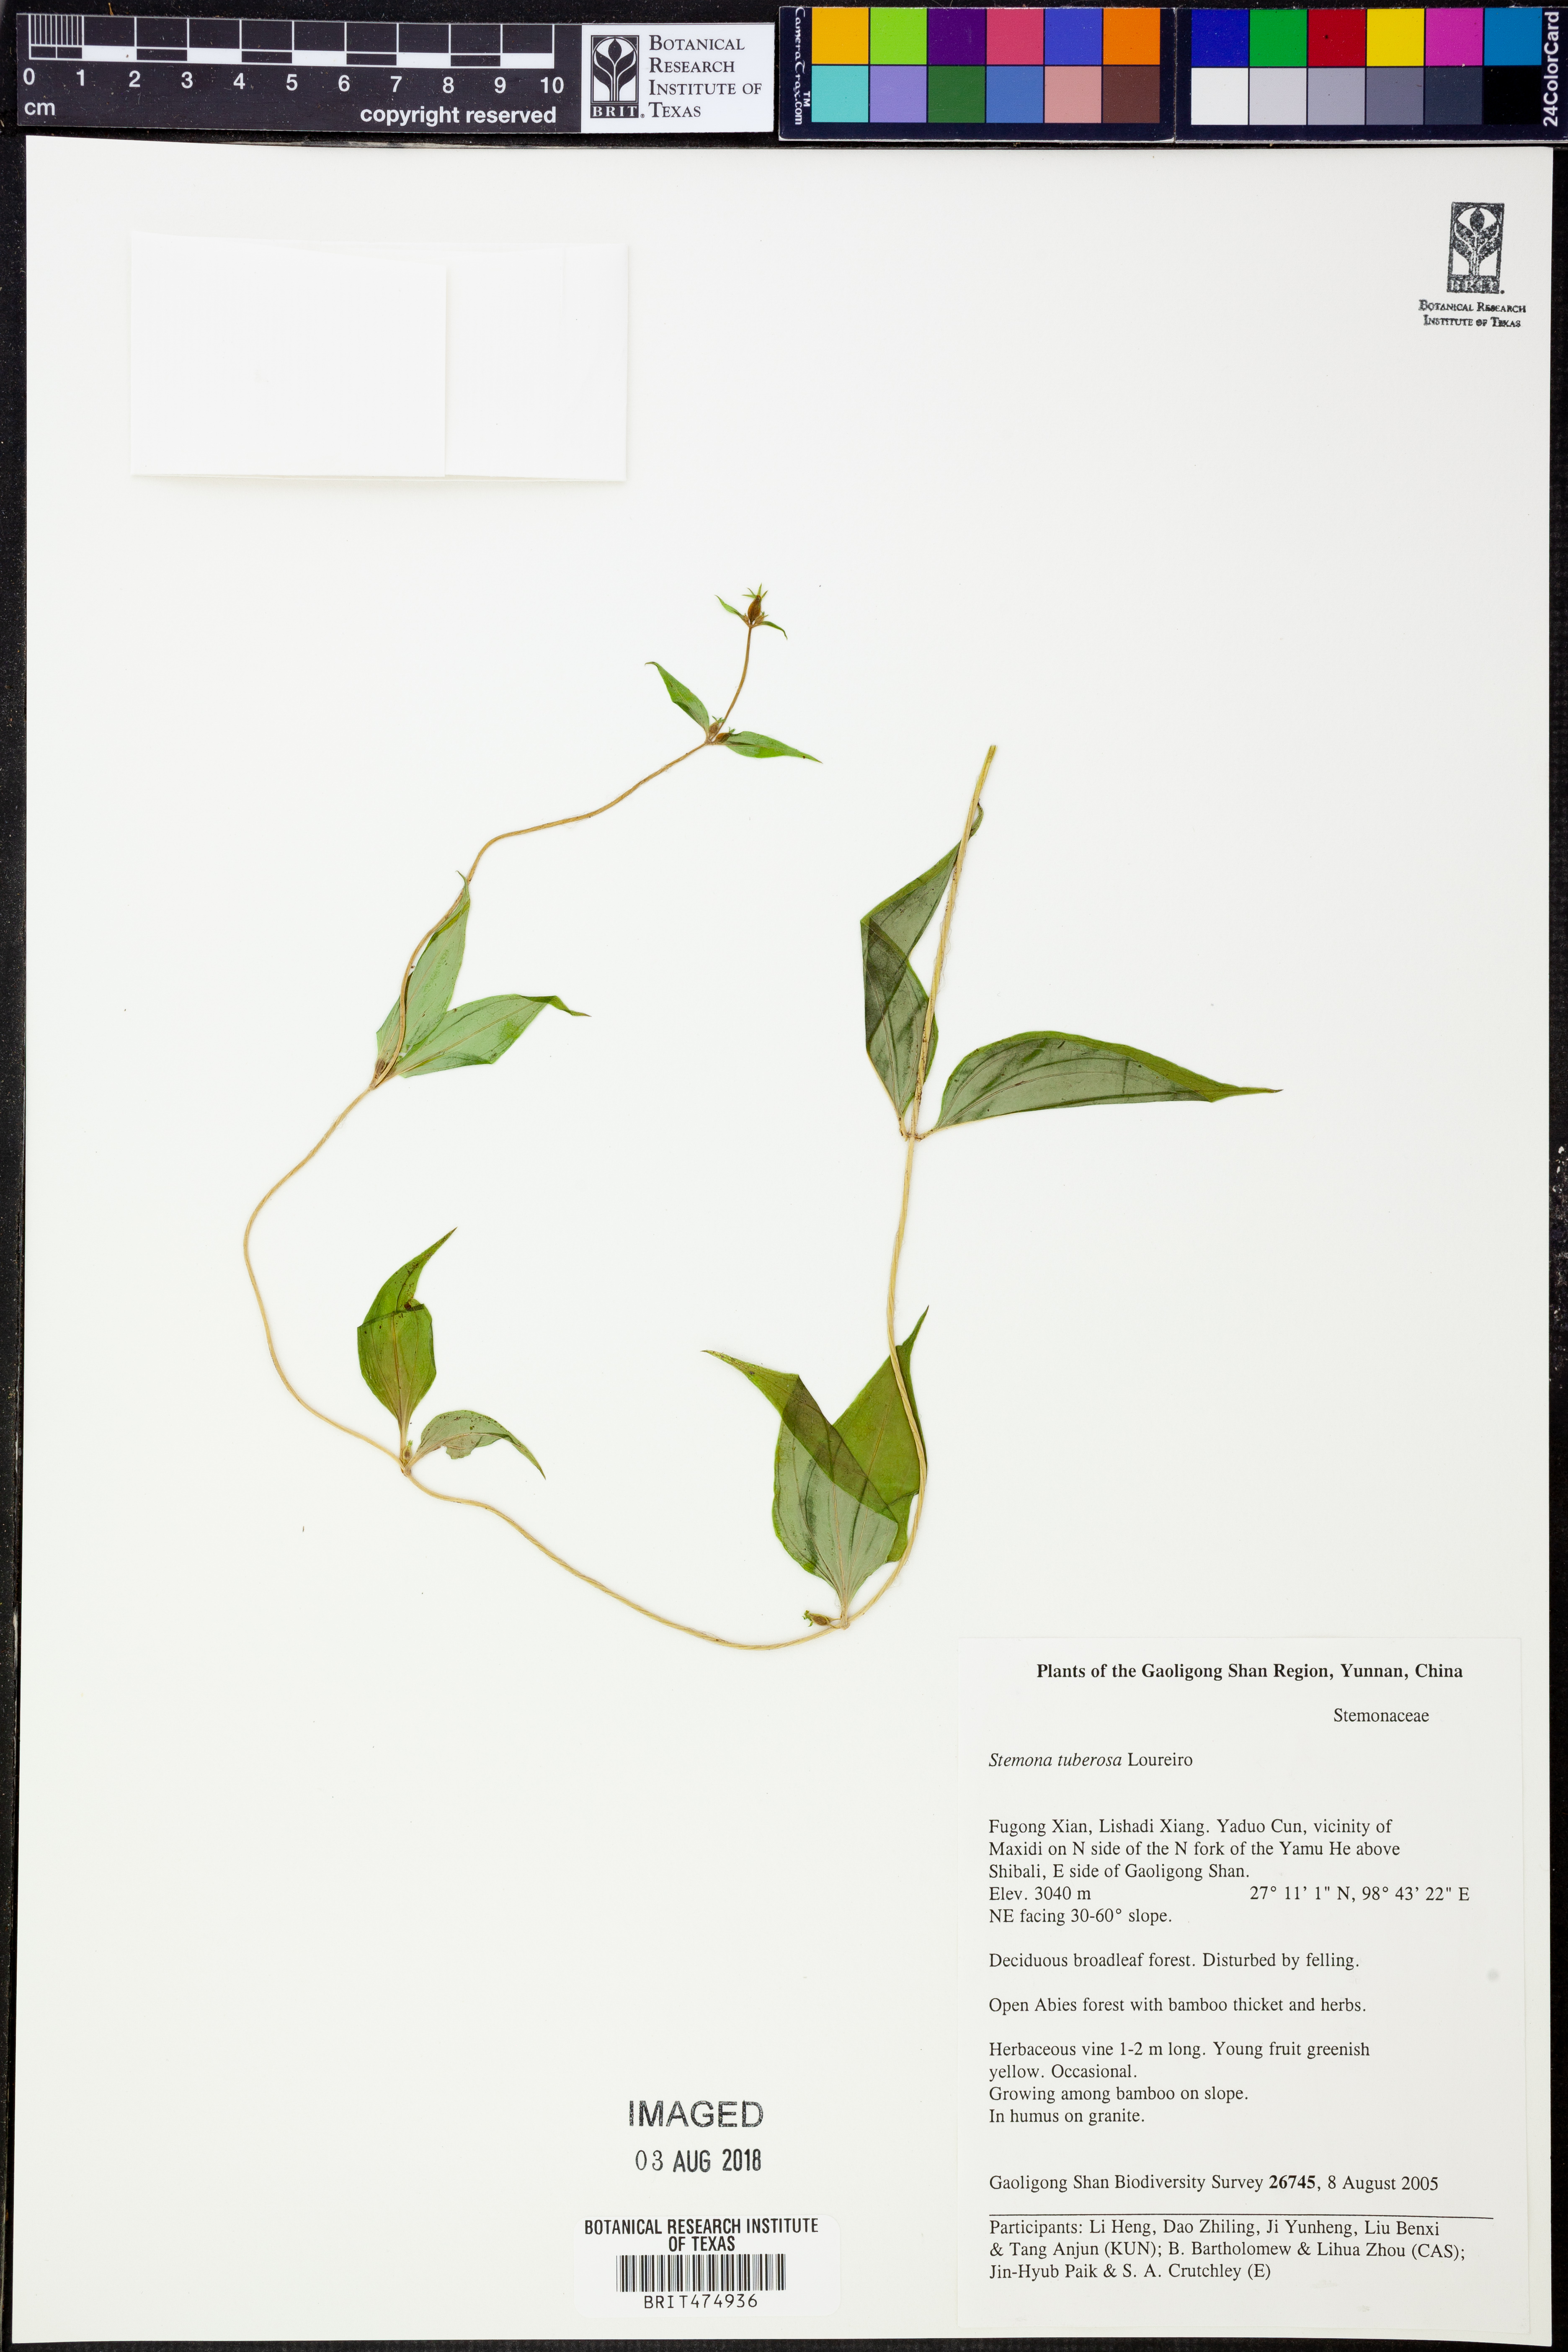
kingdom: Plantae
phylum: Tracheophyta
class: Magnoliopsida
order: Gentianales
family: Gentianaceae
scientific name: Gentianaceae
